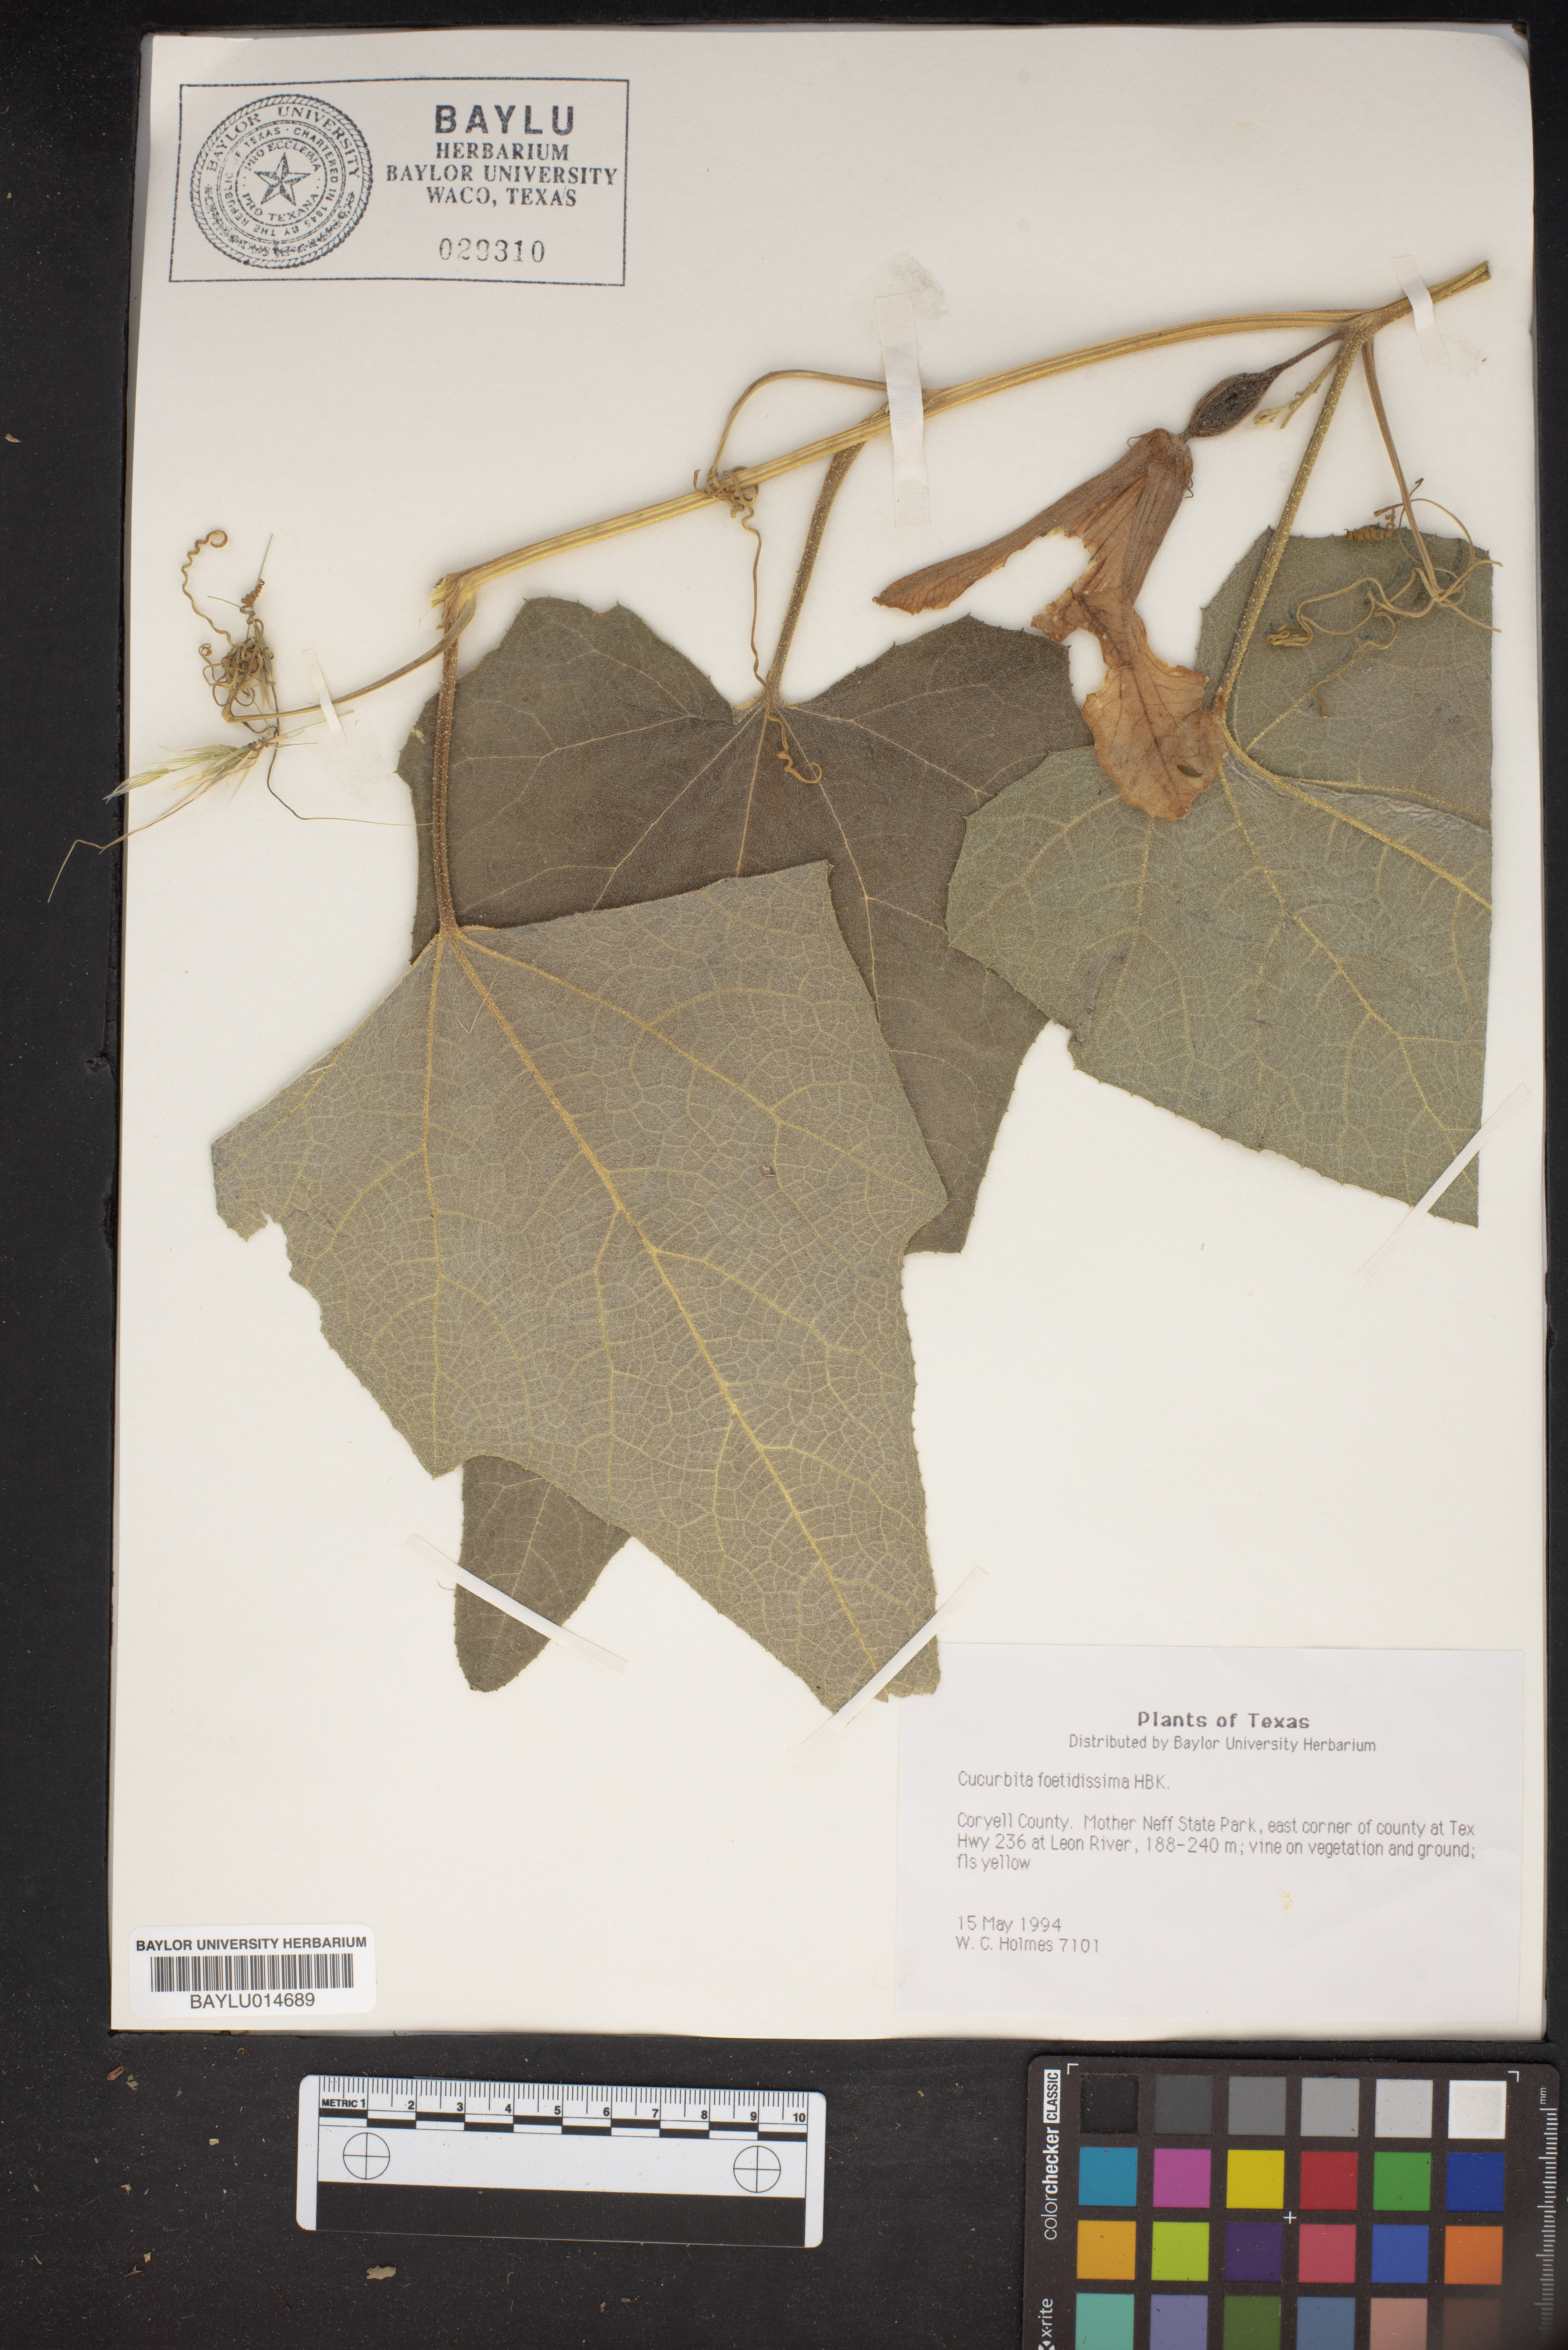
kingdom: Plantae
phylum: Tracheophyta
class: Magnoliopsida
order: Cucurbitales
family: Cucurbitaceae
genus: Cucurbita
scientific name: Cucurbita foetidissima
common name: Buffalo gourd
